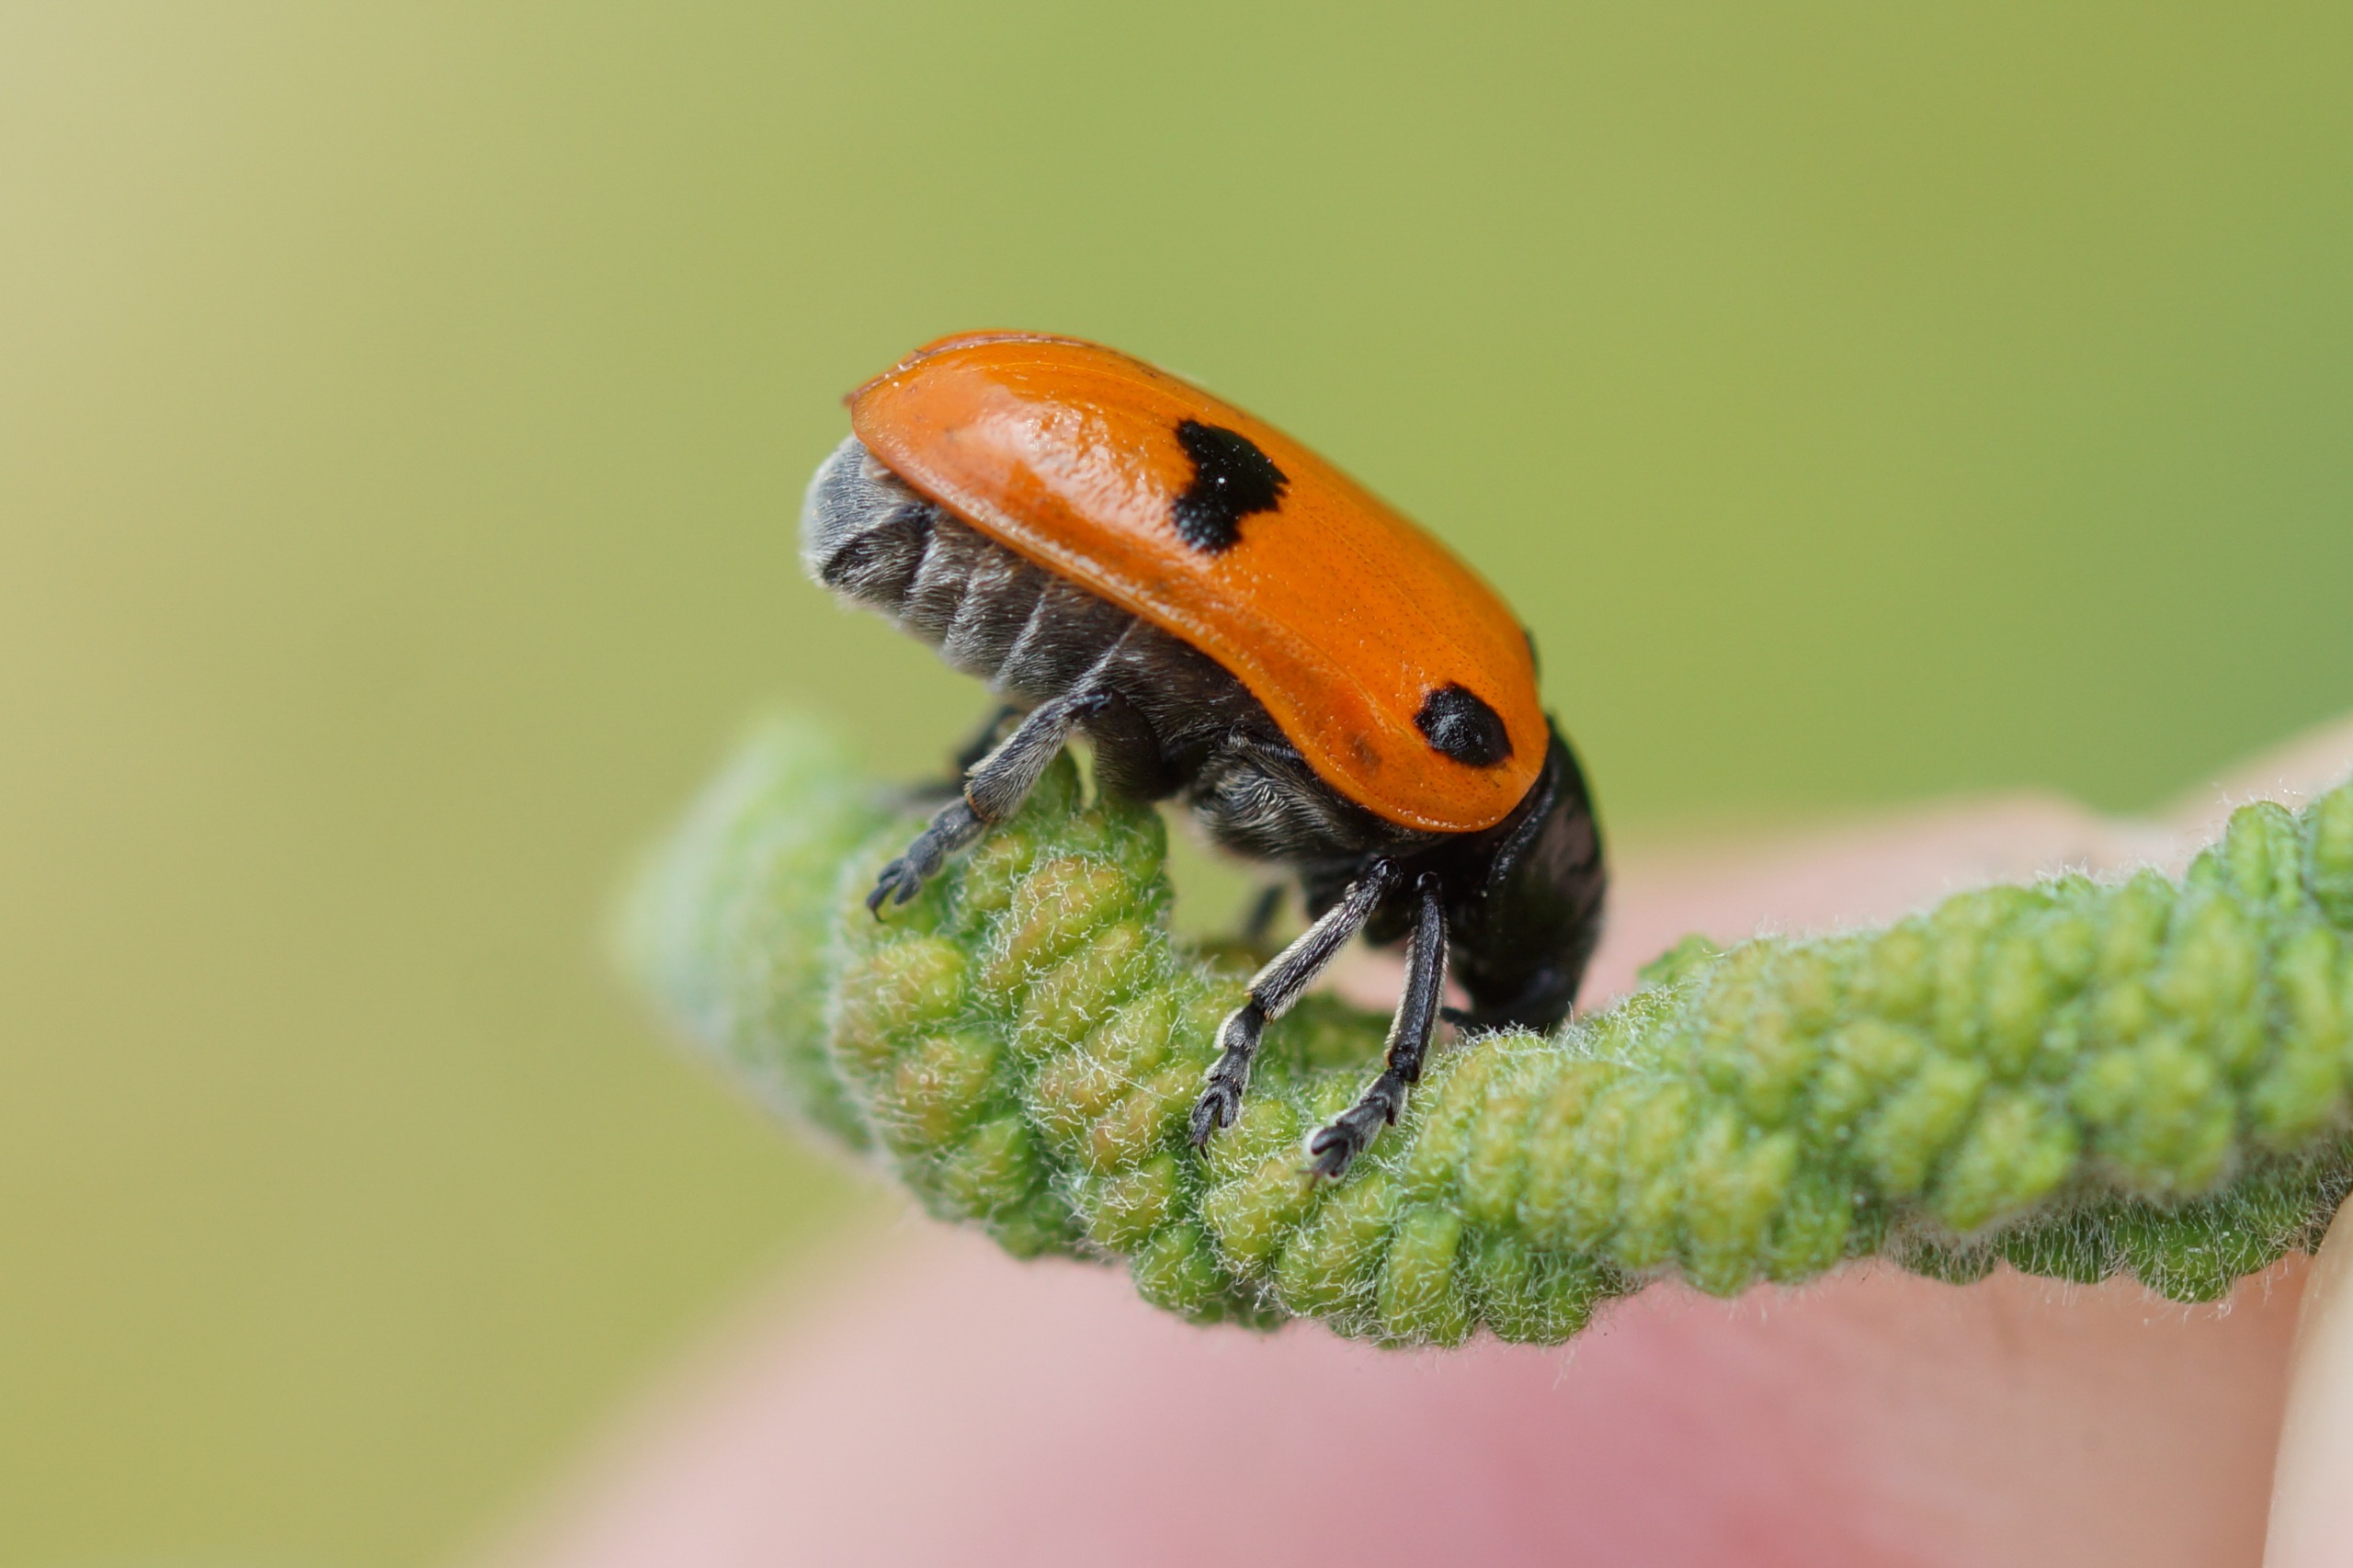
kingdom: Animalia
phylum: Arthropoda
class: Insecta
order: Coleoptera
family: Chrysomelidae
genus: Clytra
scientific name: Clytra quadripunctata
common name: Myrebladbille
